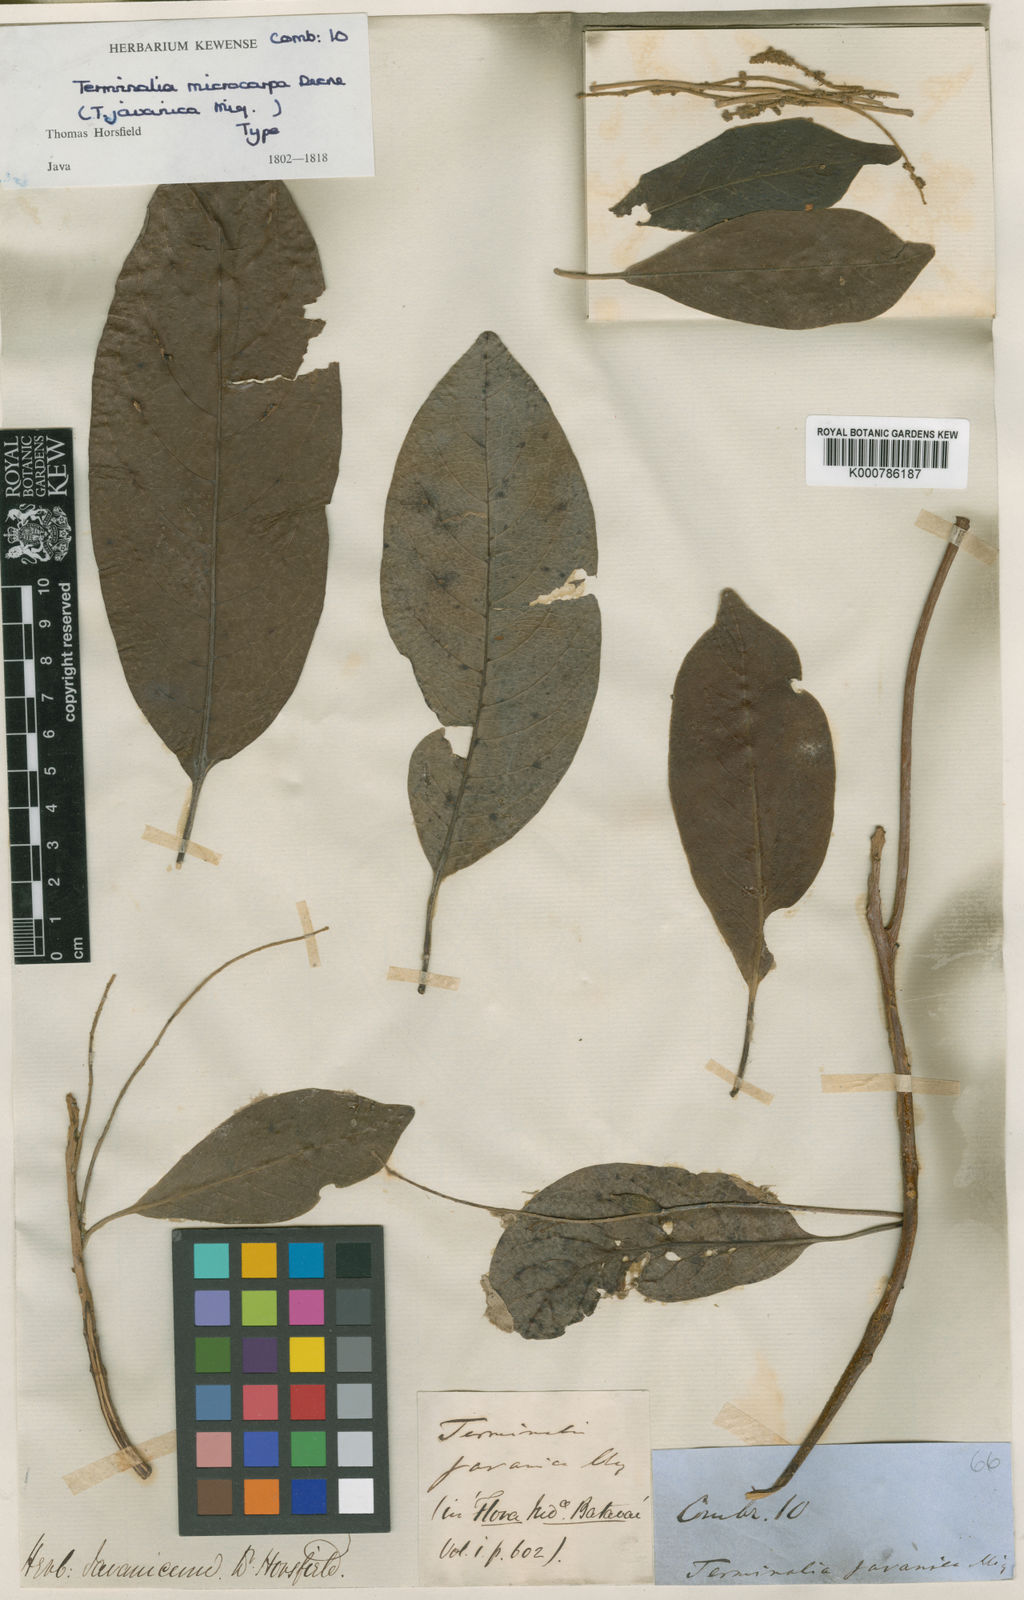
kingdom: Plantae
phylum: Tracheophyta
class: Magnoliopsida
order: Myrtales
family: Combretaceae
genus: Terminalia
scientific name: Terminalia microcarpa
